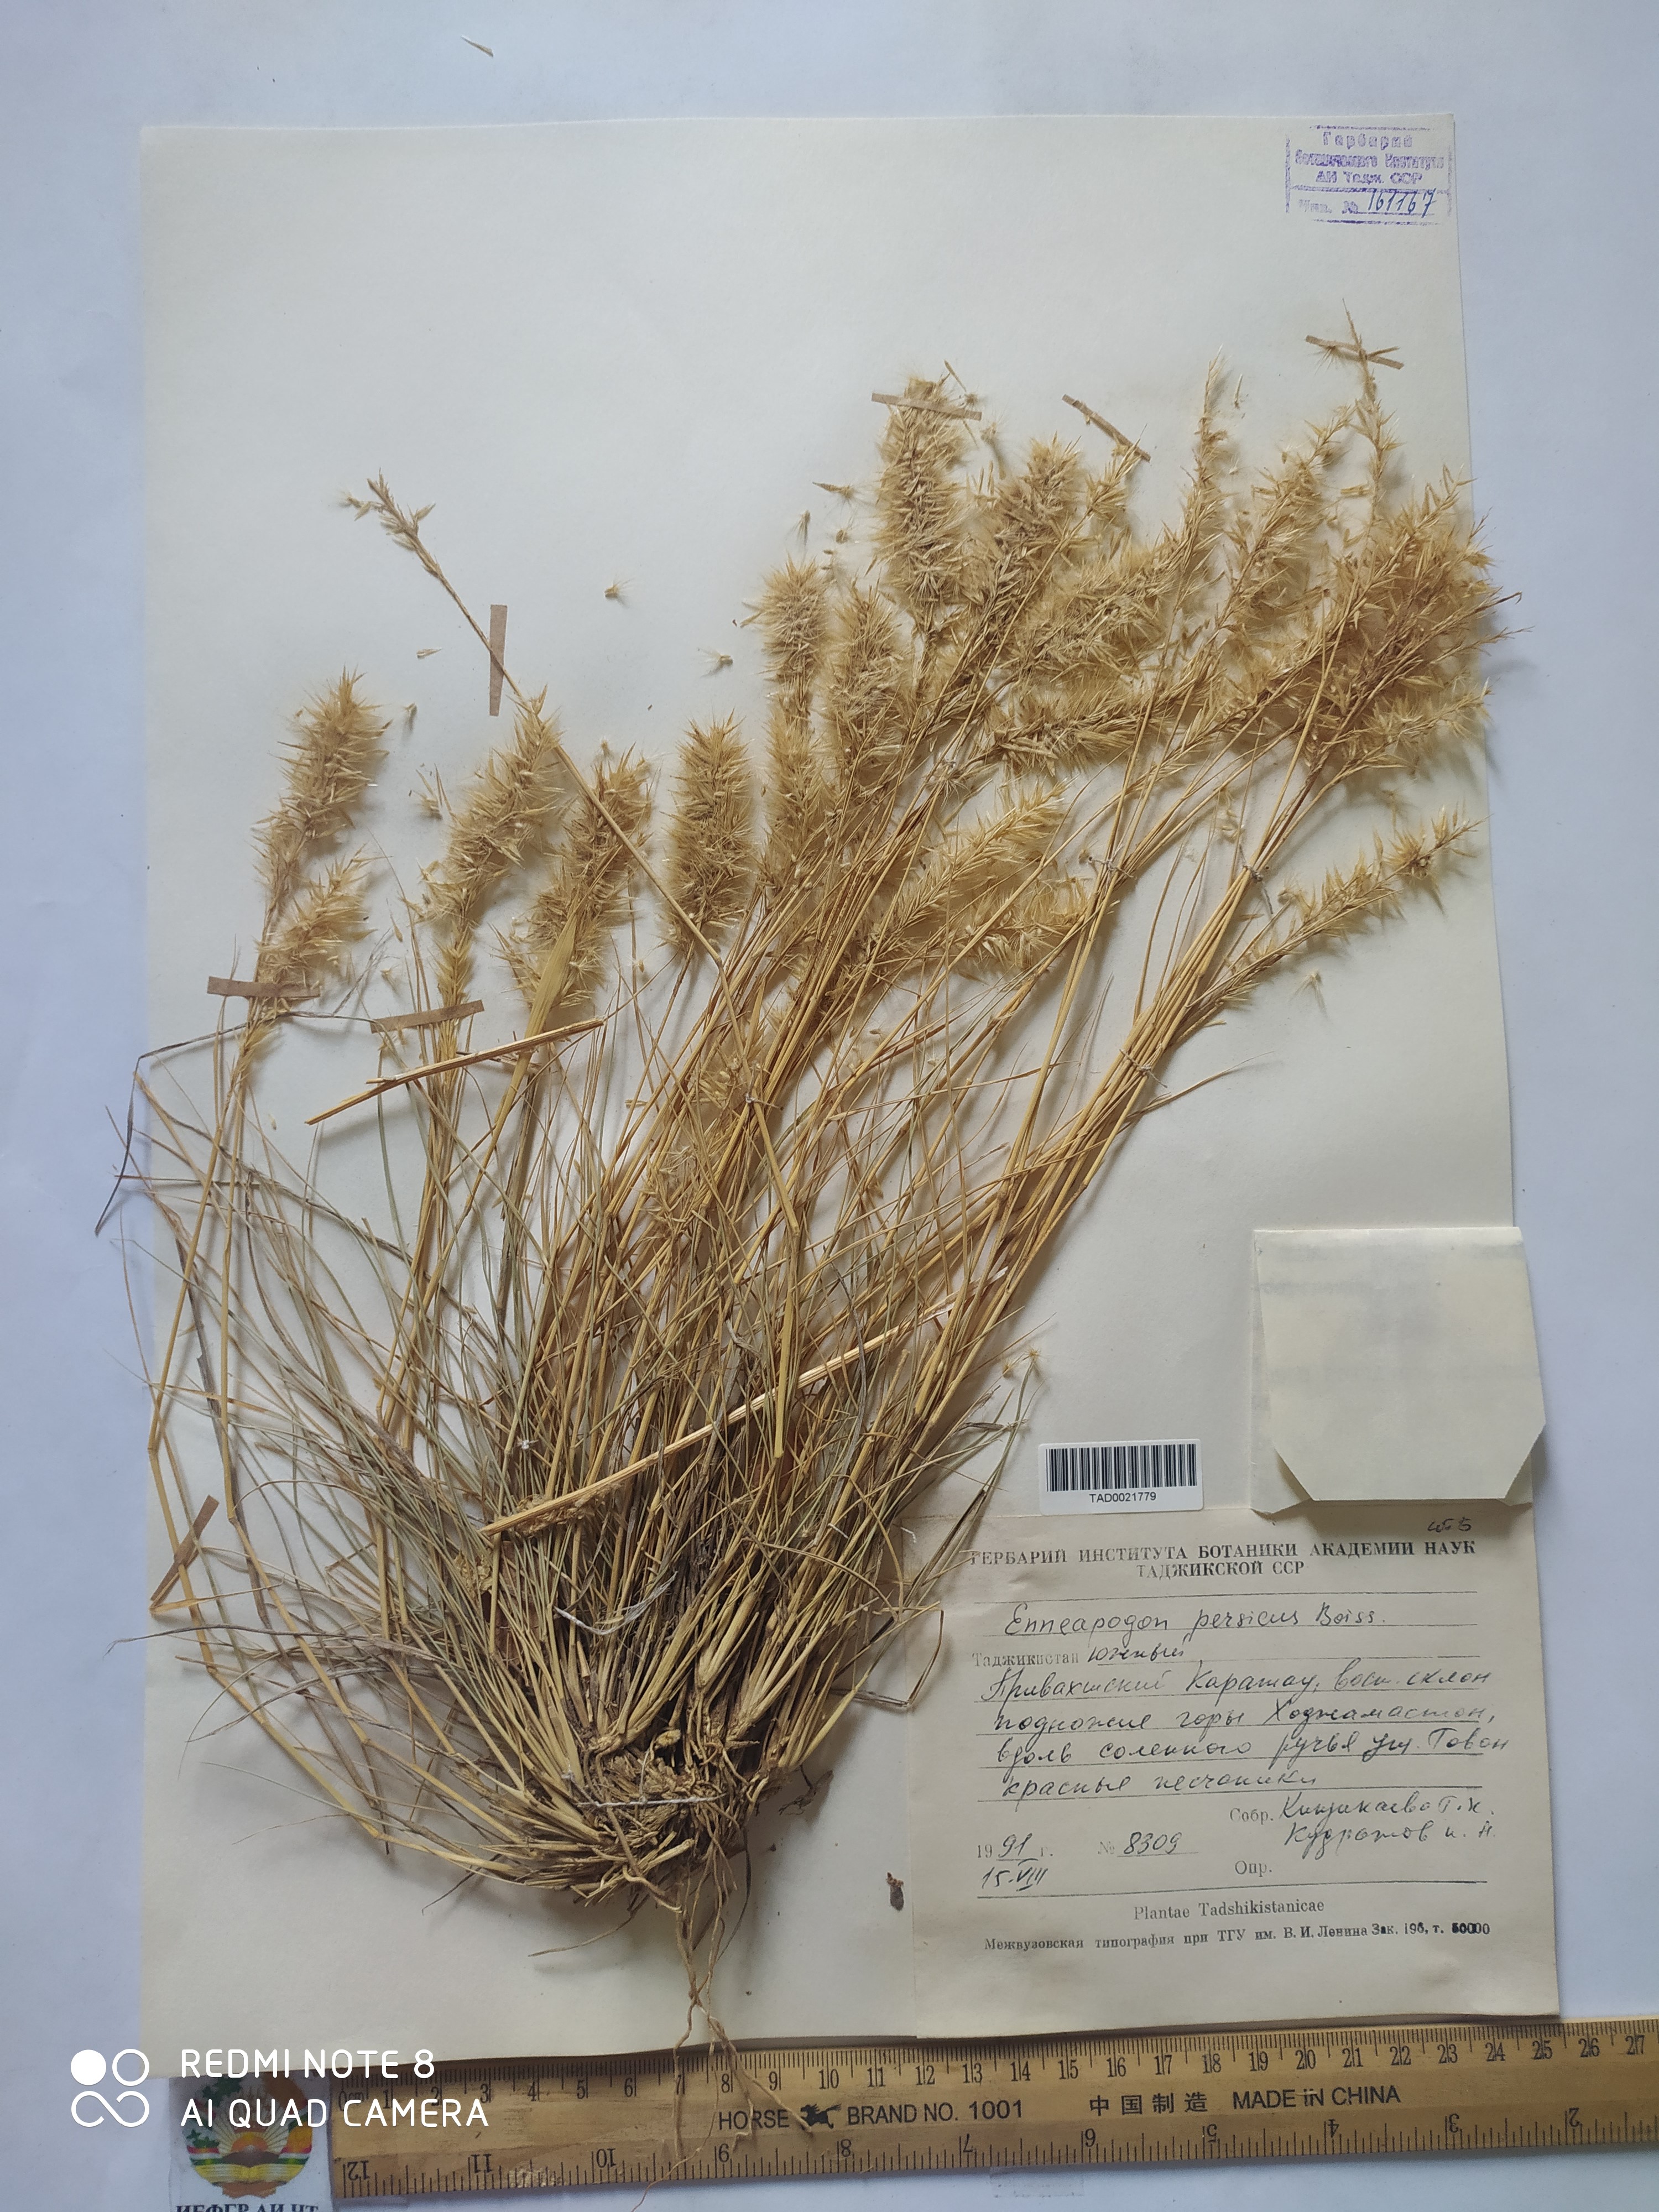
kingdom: Plantae
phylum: Tracheophyta
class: Liliopsida
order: Poales
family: Poaceae
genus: Enneapogon
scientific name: Enneapogon persicus
